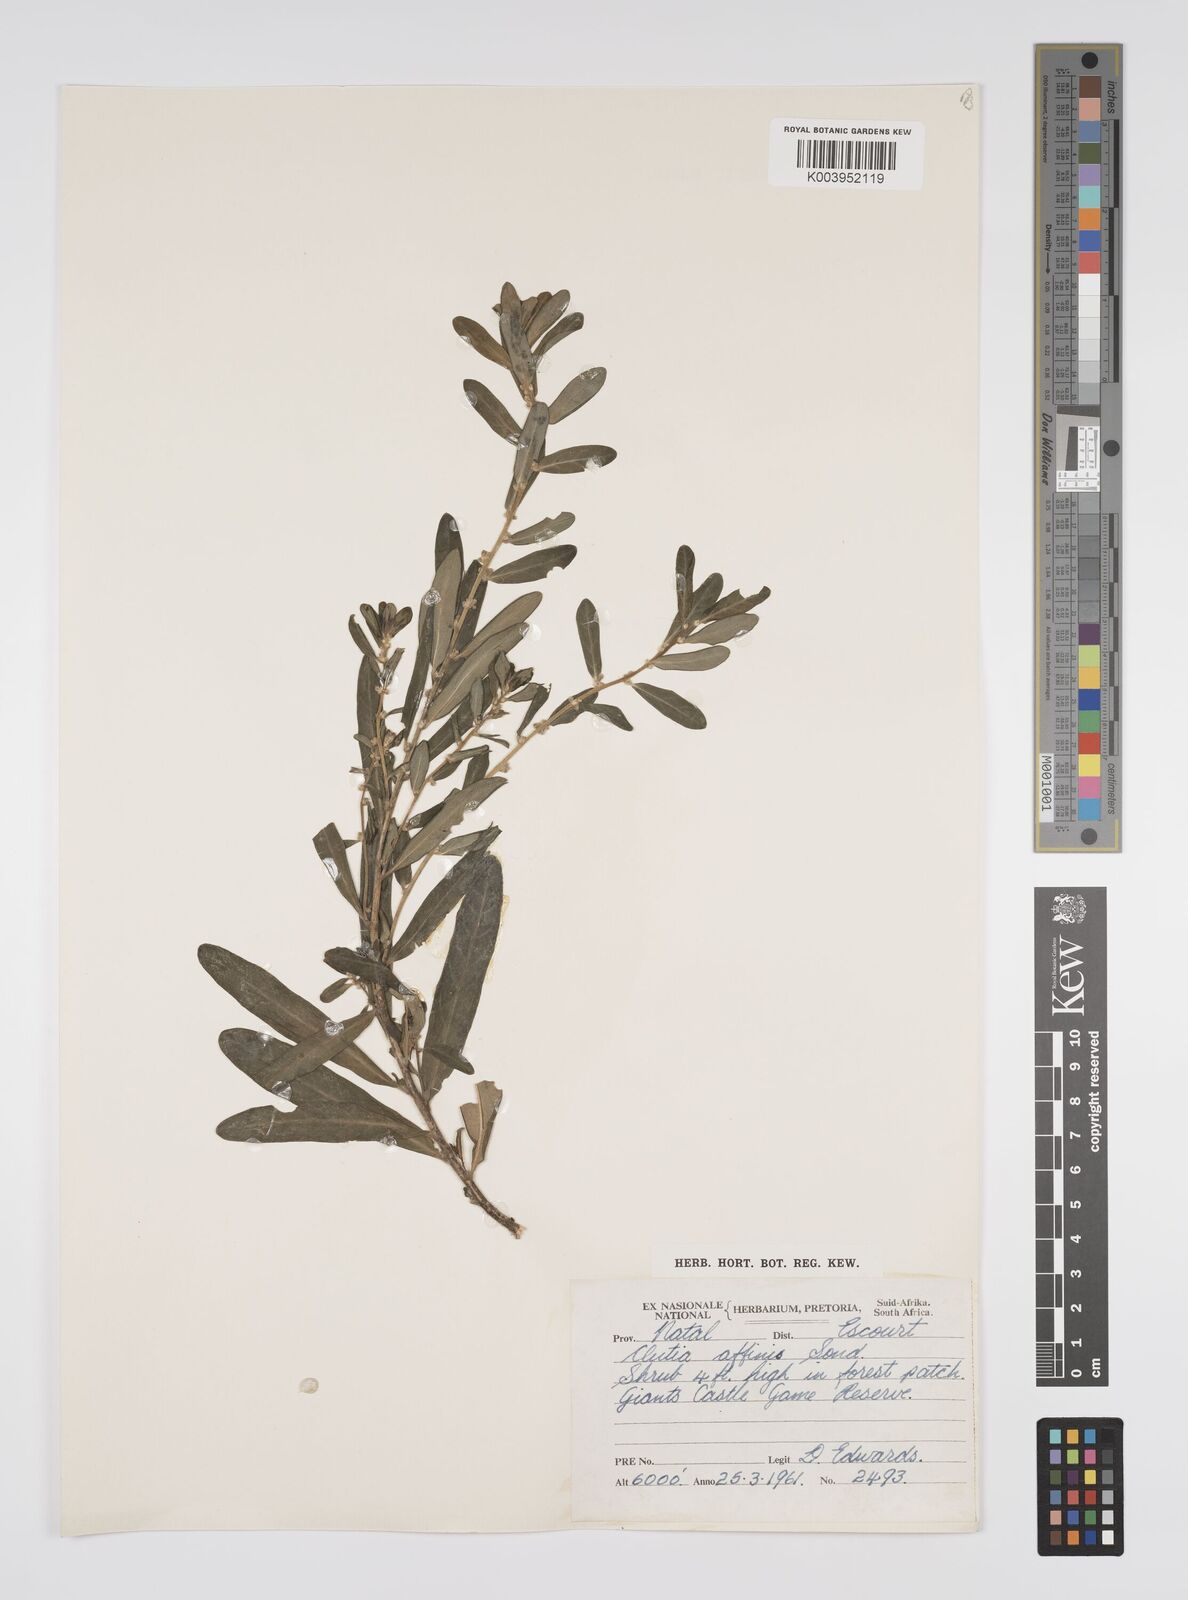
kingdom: Plantae
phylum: Tracheophyta
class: Magnoliopsida
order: Malpighiales
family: Peraceae
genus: Clutia
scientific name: Clutia affinis
